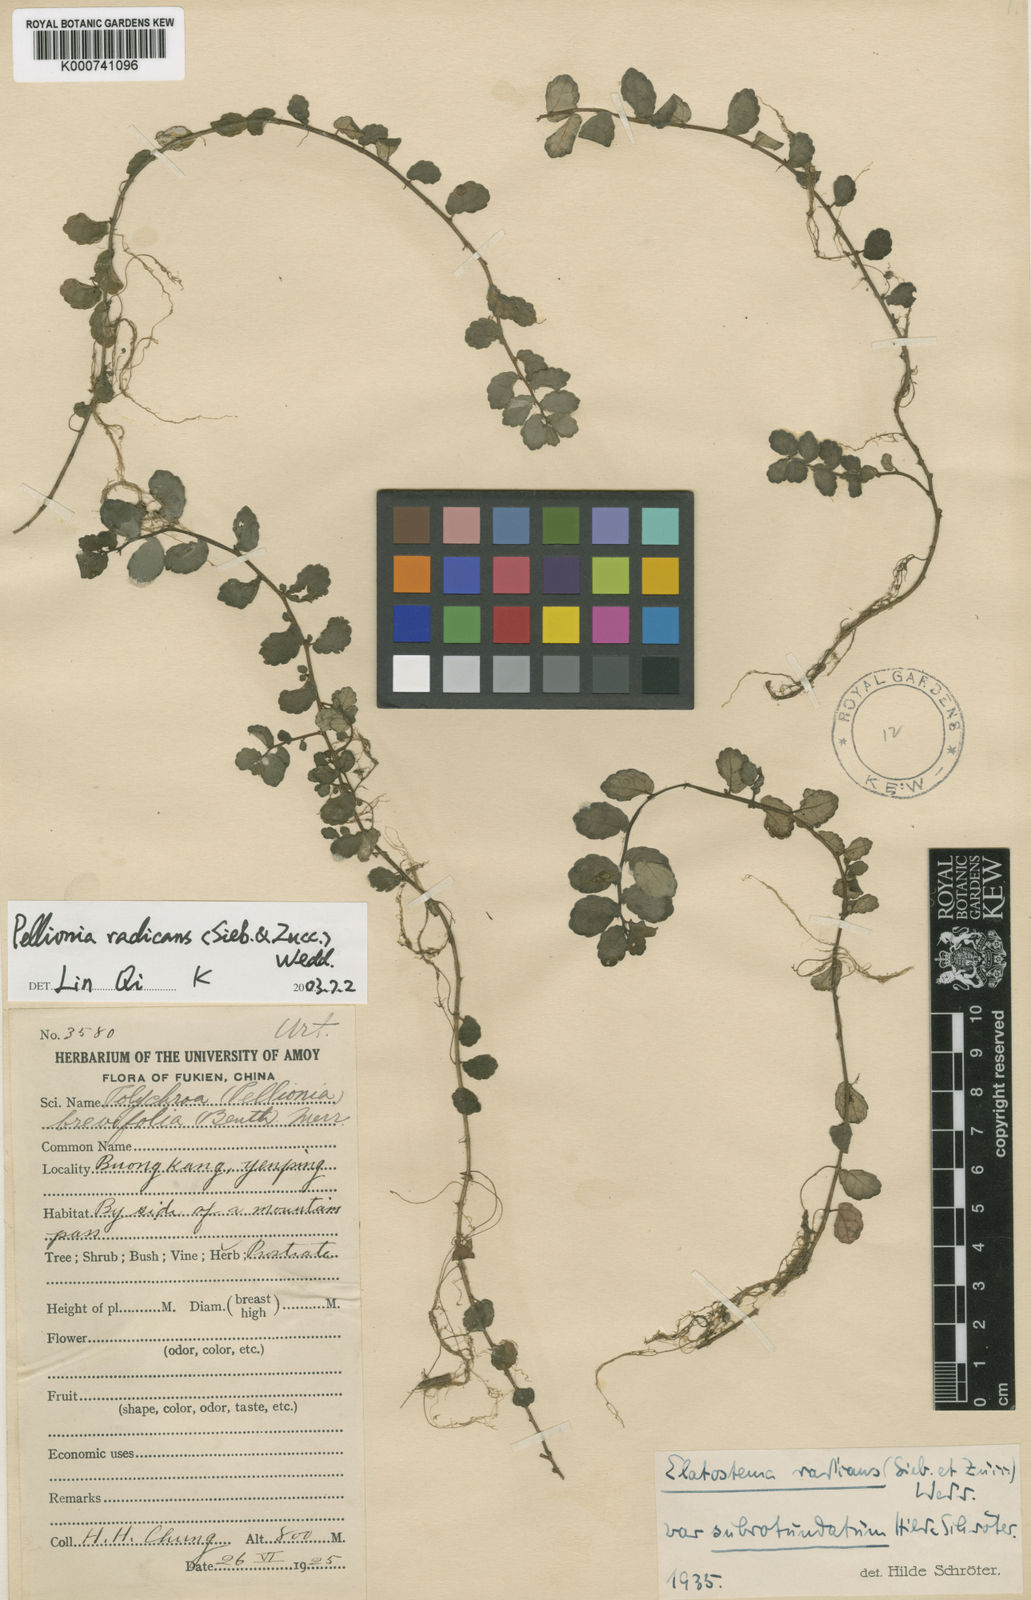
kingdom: Plantae
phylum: Tracheophyta
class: Magnoliopsida
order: Rosales
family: Urticaceae
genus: Elatostema
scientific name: Elatostema radicans
